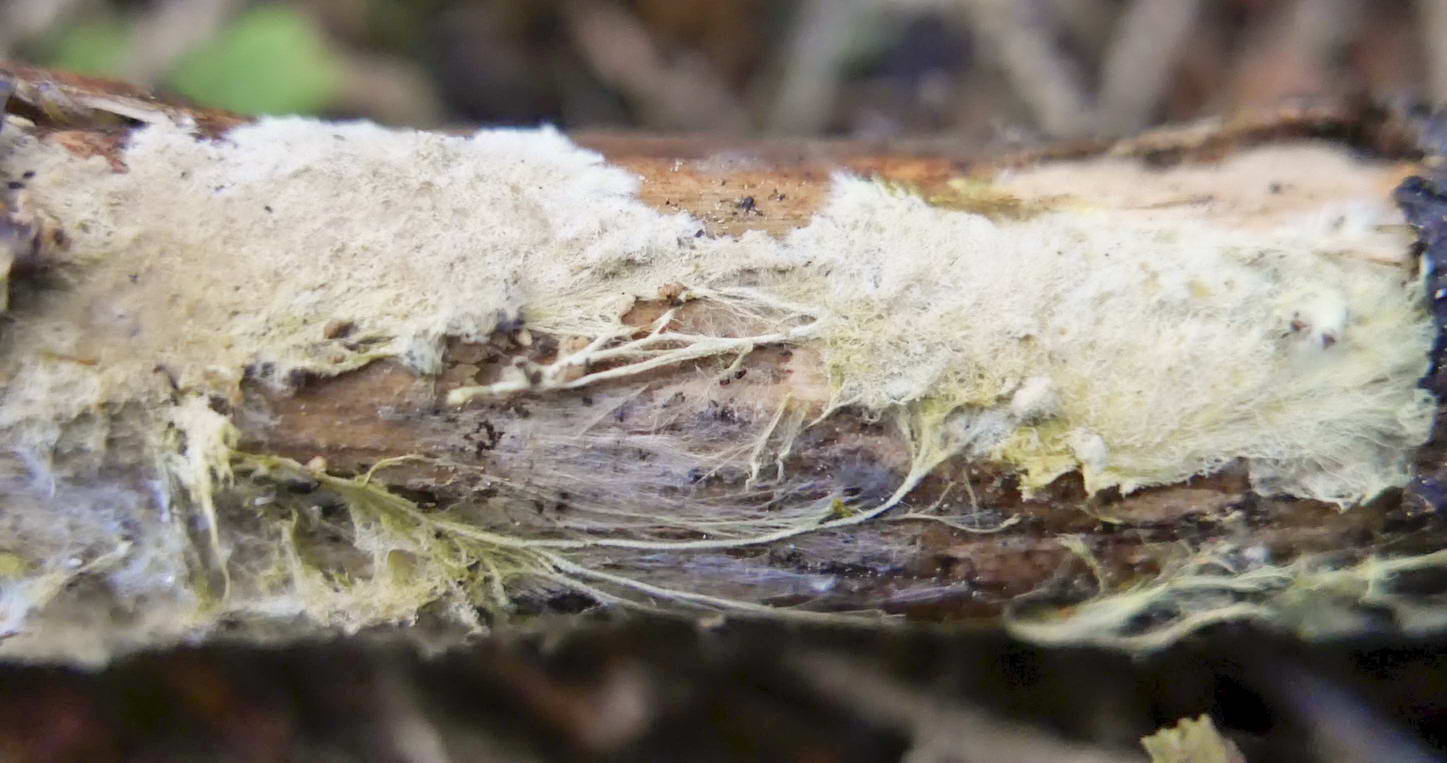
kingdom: Fungi
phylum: Basidiomycota
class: Agaricomycetes
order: Russulales
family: Xenasmataceae
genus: Xenasmatella
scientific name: Xenasmatella vaga
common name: svovl-strenghinde
